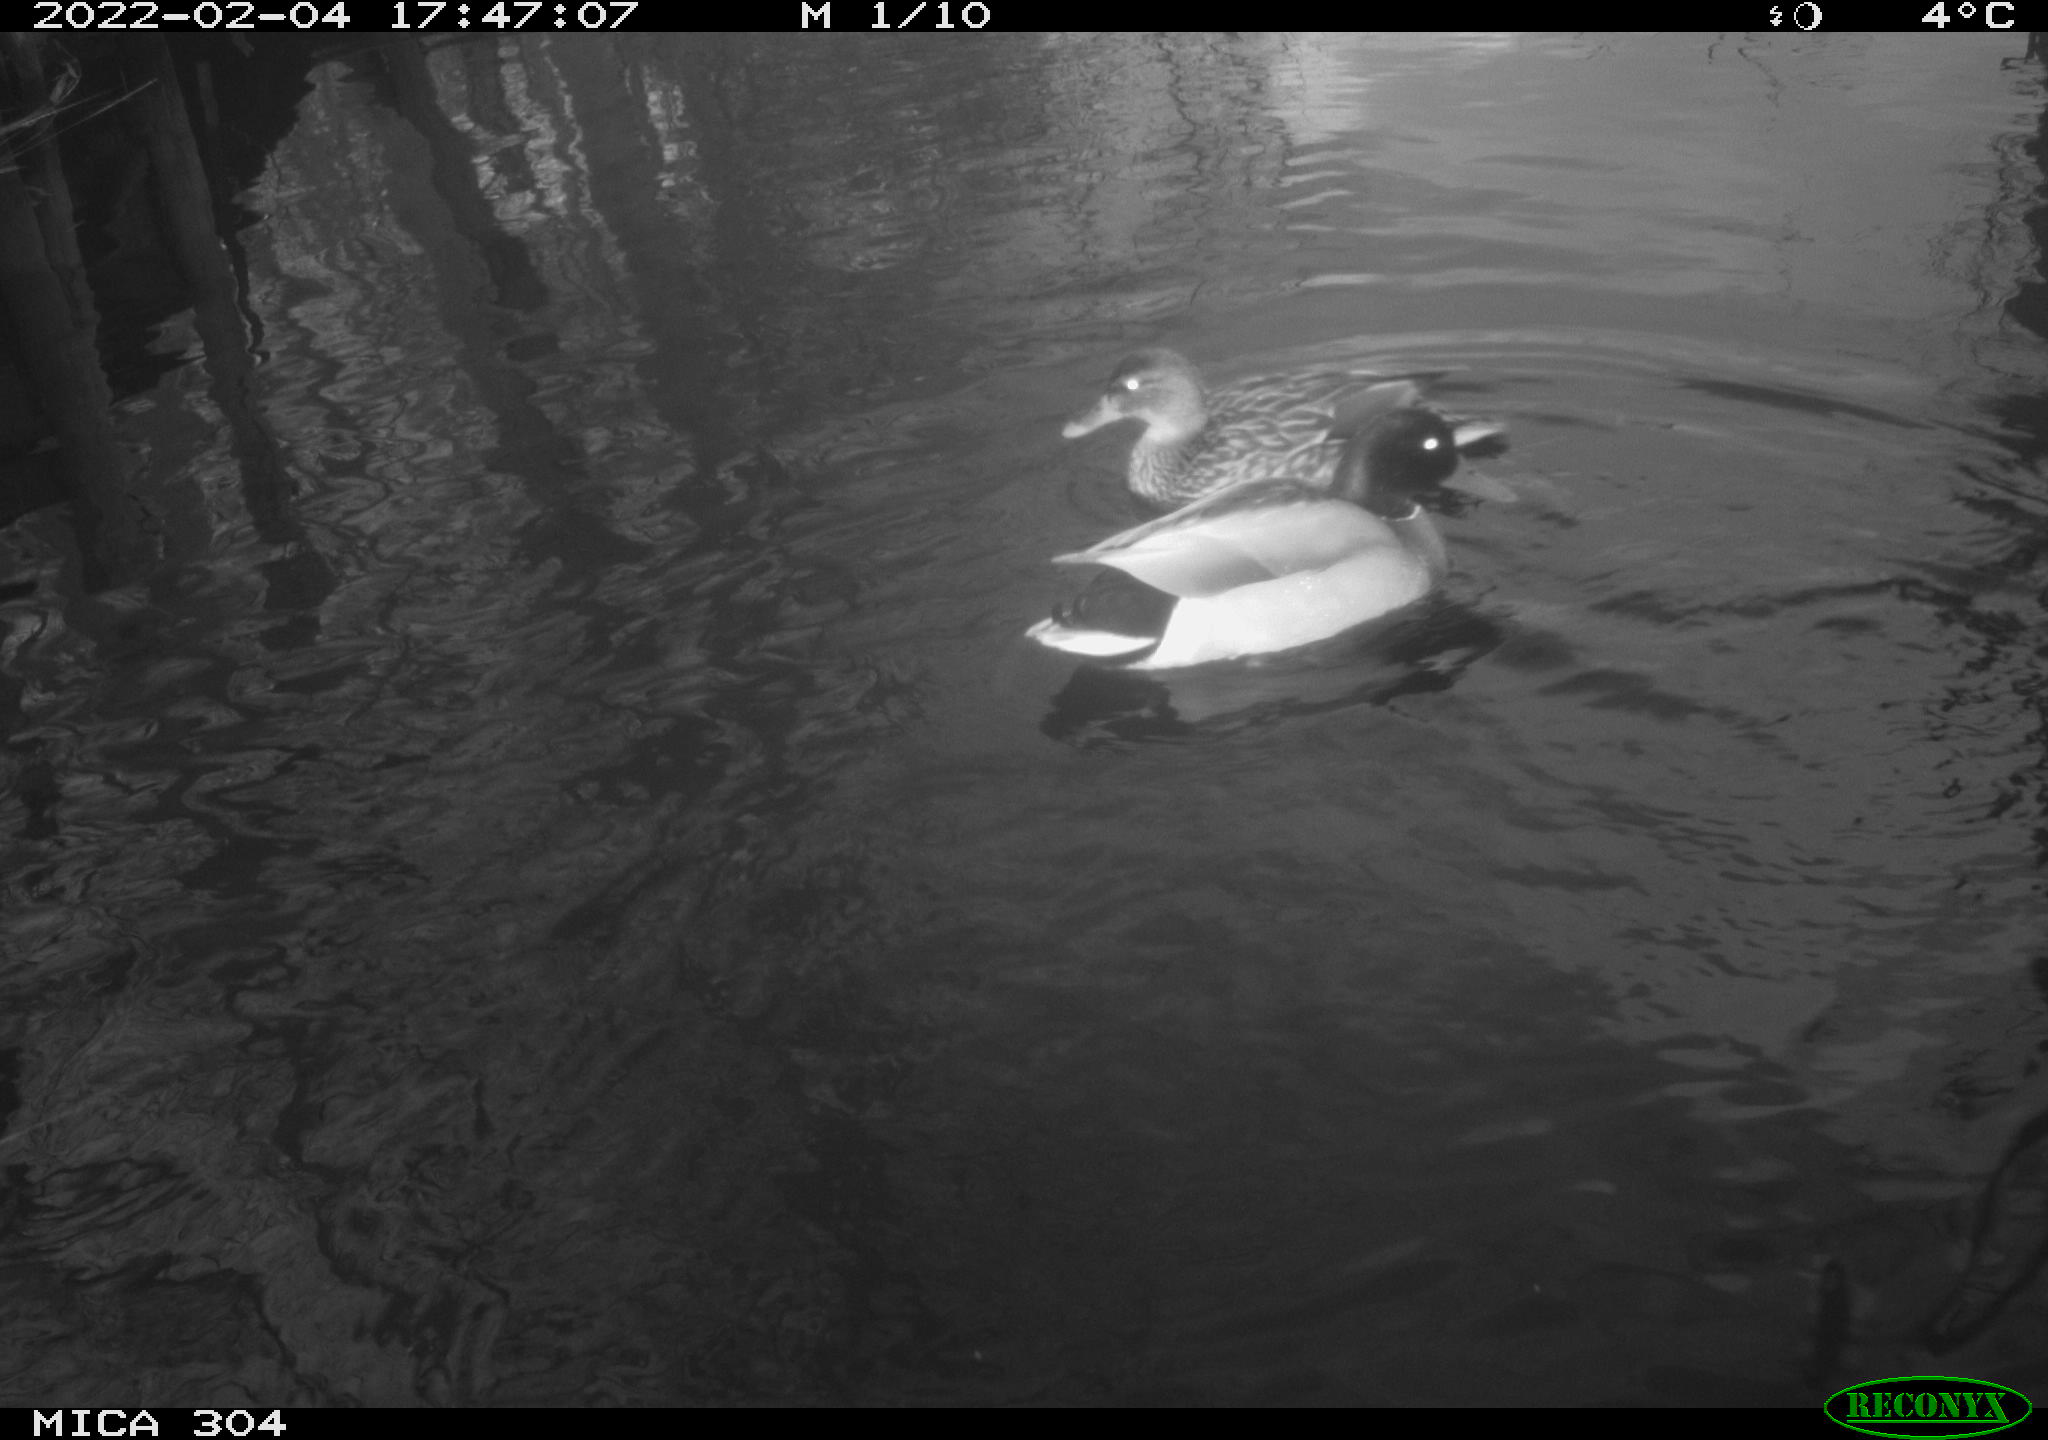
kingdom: Animalia
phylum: Chordata
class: Aves
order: Anseriformes
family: Anatidae
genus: Anas
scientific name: Anas platyrhynchos
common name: Mallard
